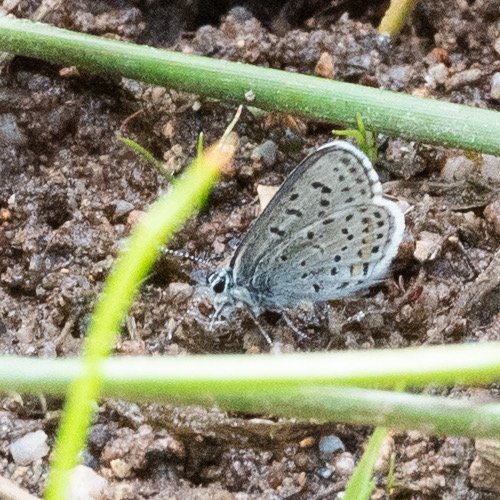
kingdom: Animalia
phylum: Arthropoda
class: Insecta
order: Lepidoptera
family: Lycaenidae
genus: Euphilotes
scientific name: Euphilotes enoptes
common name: Columbia Blue
